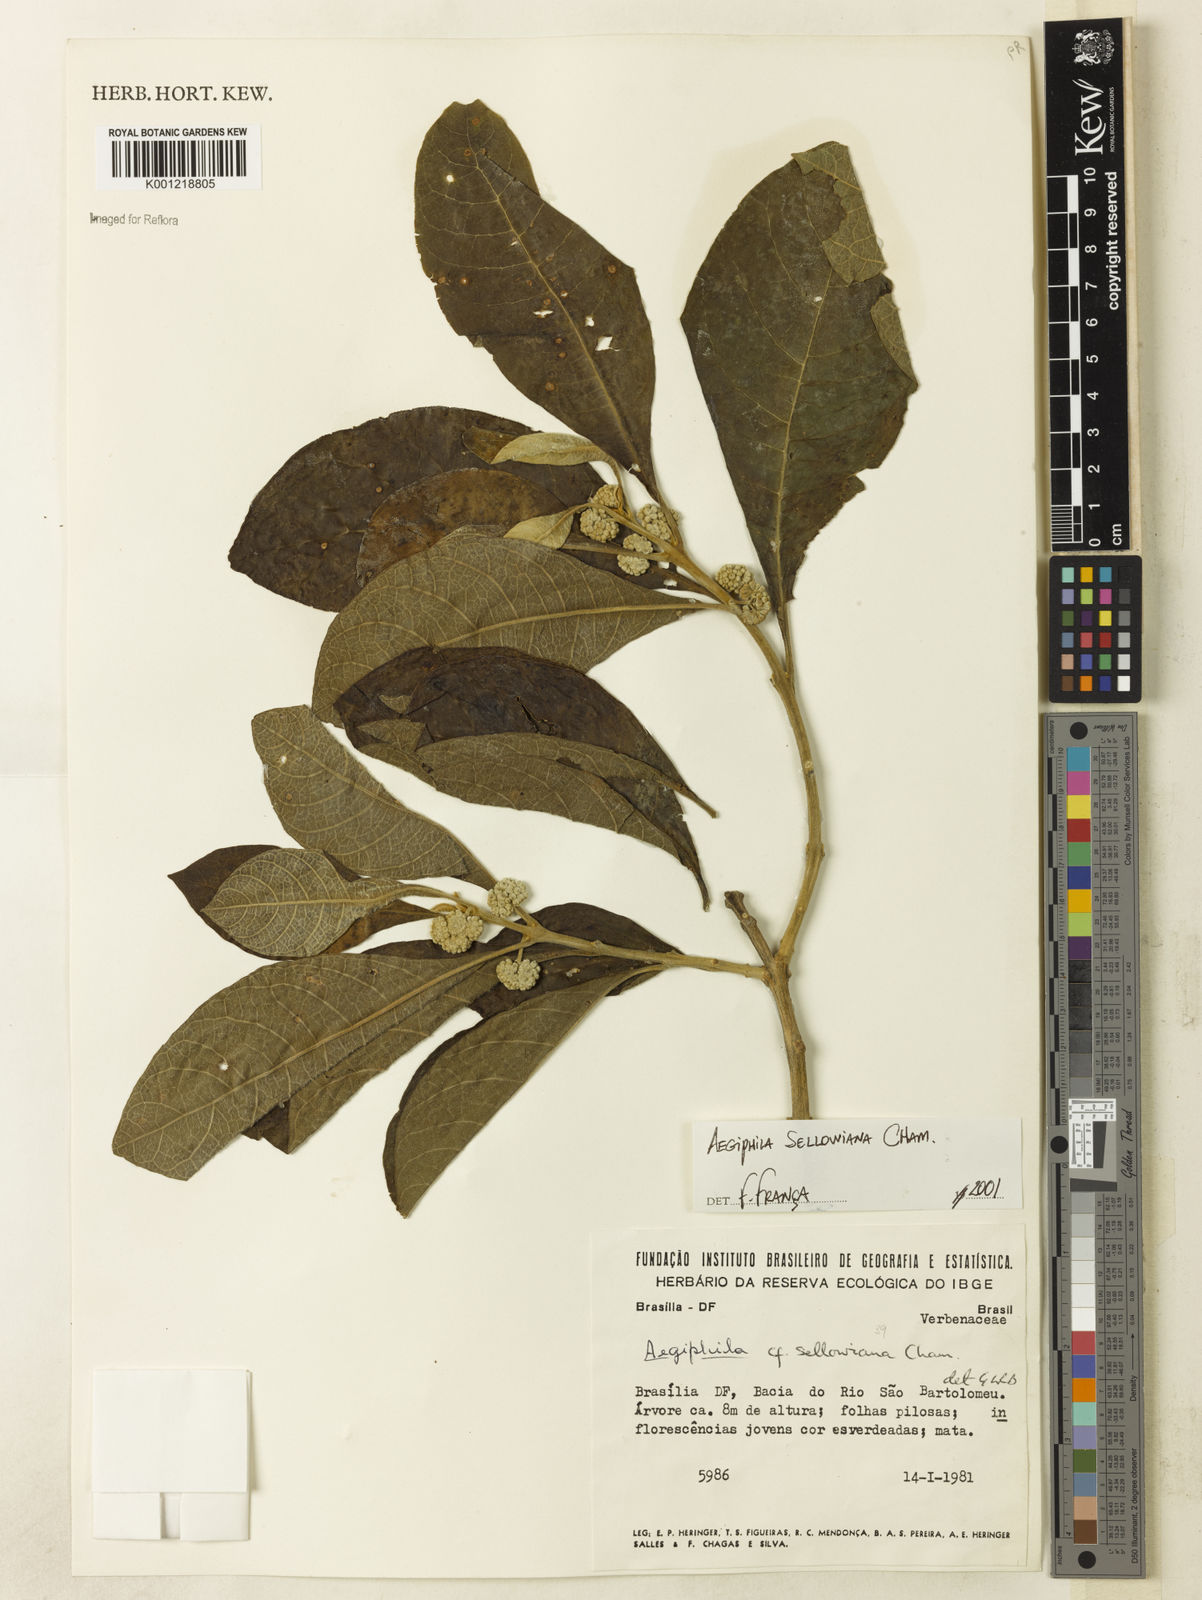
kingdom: Plantae
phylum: Tracheophyta
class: Magnoliopsida
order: Lamiales
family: Lamiaceae
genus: Aegiphila
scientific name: Aegiphila verticillata
